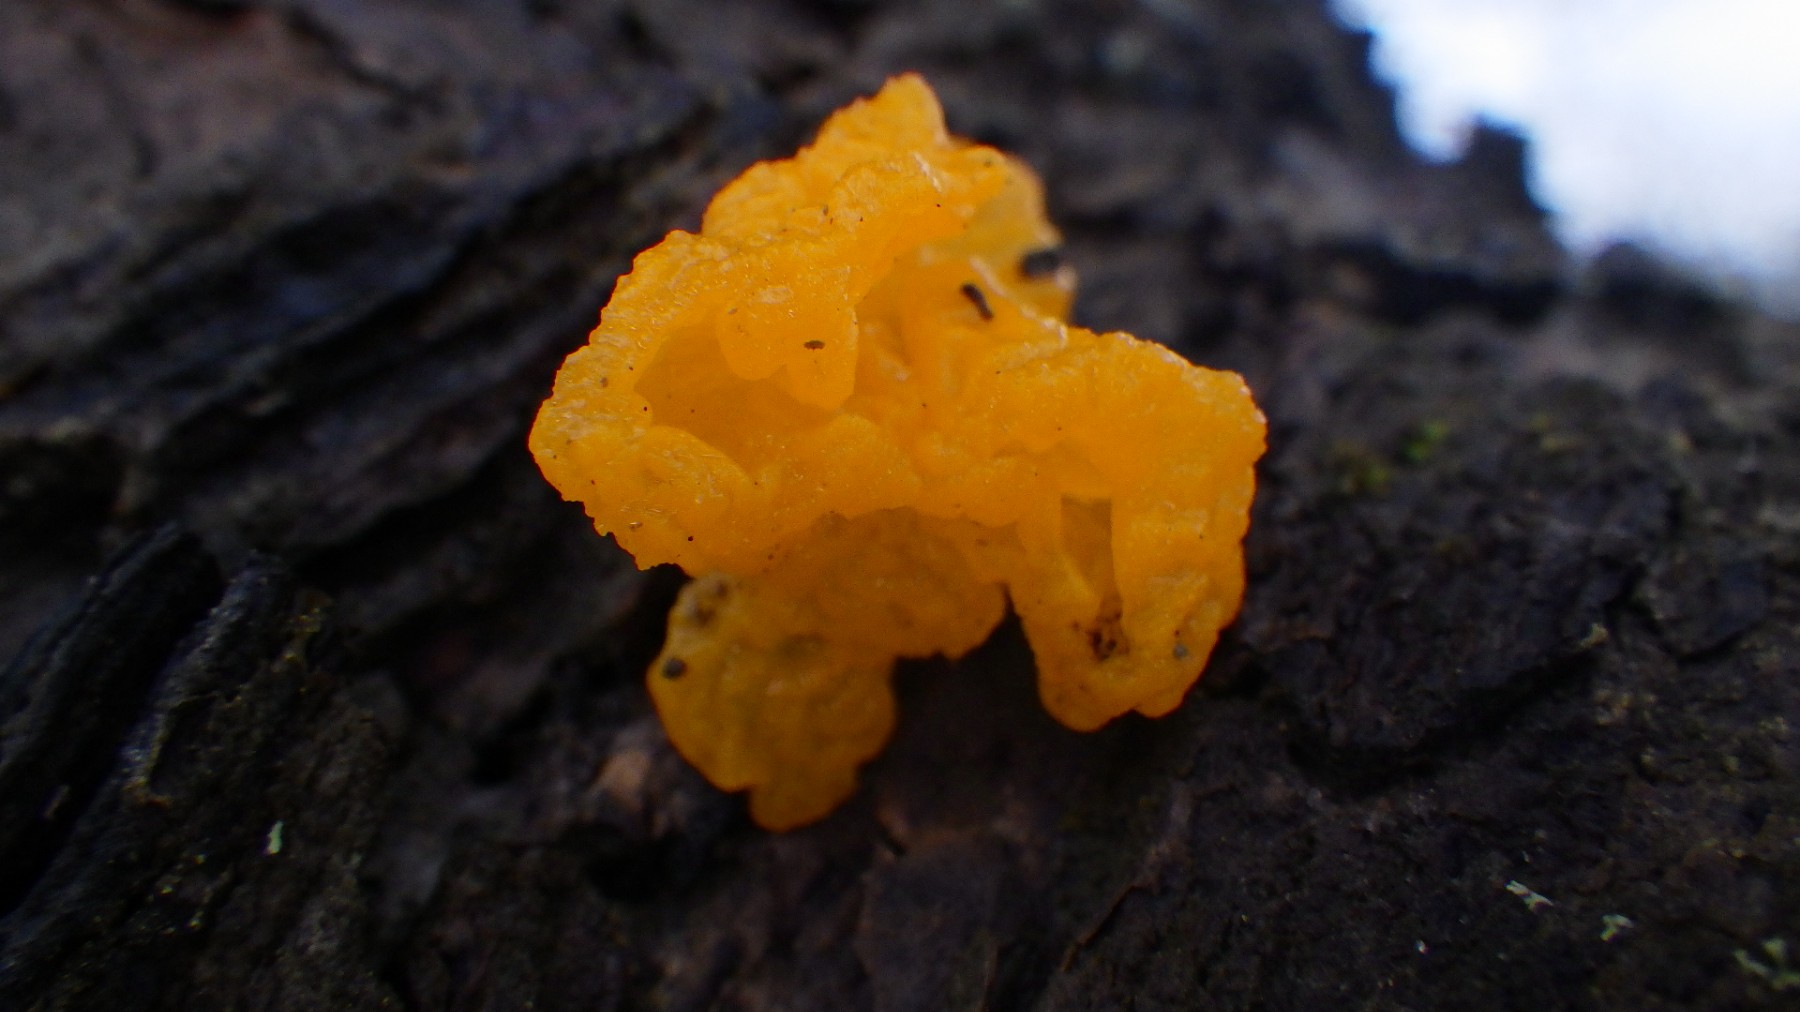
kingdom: Fungi
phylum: Basidiomycota
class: Tremellomycetes
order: Tremellales
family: Tremellaceae
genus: Tremella
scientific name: Tremella mesenterica
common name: gul bævresvamp
